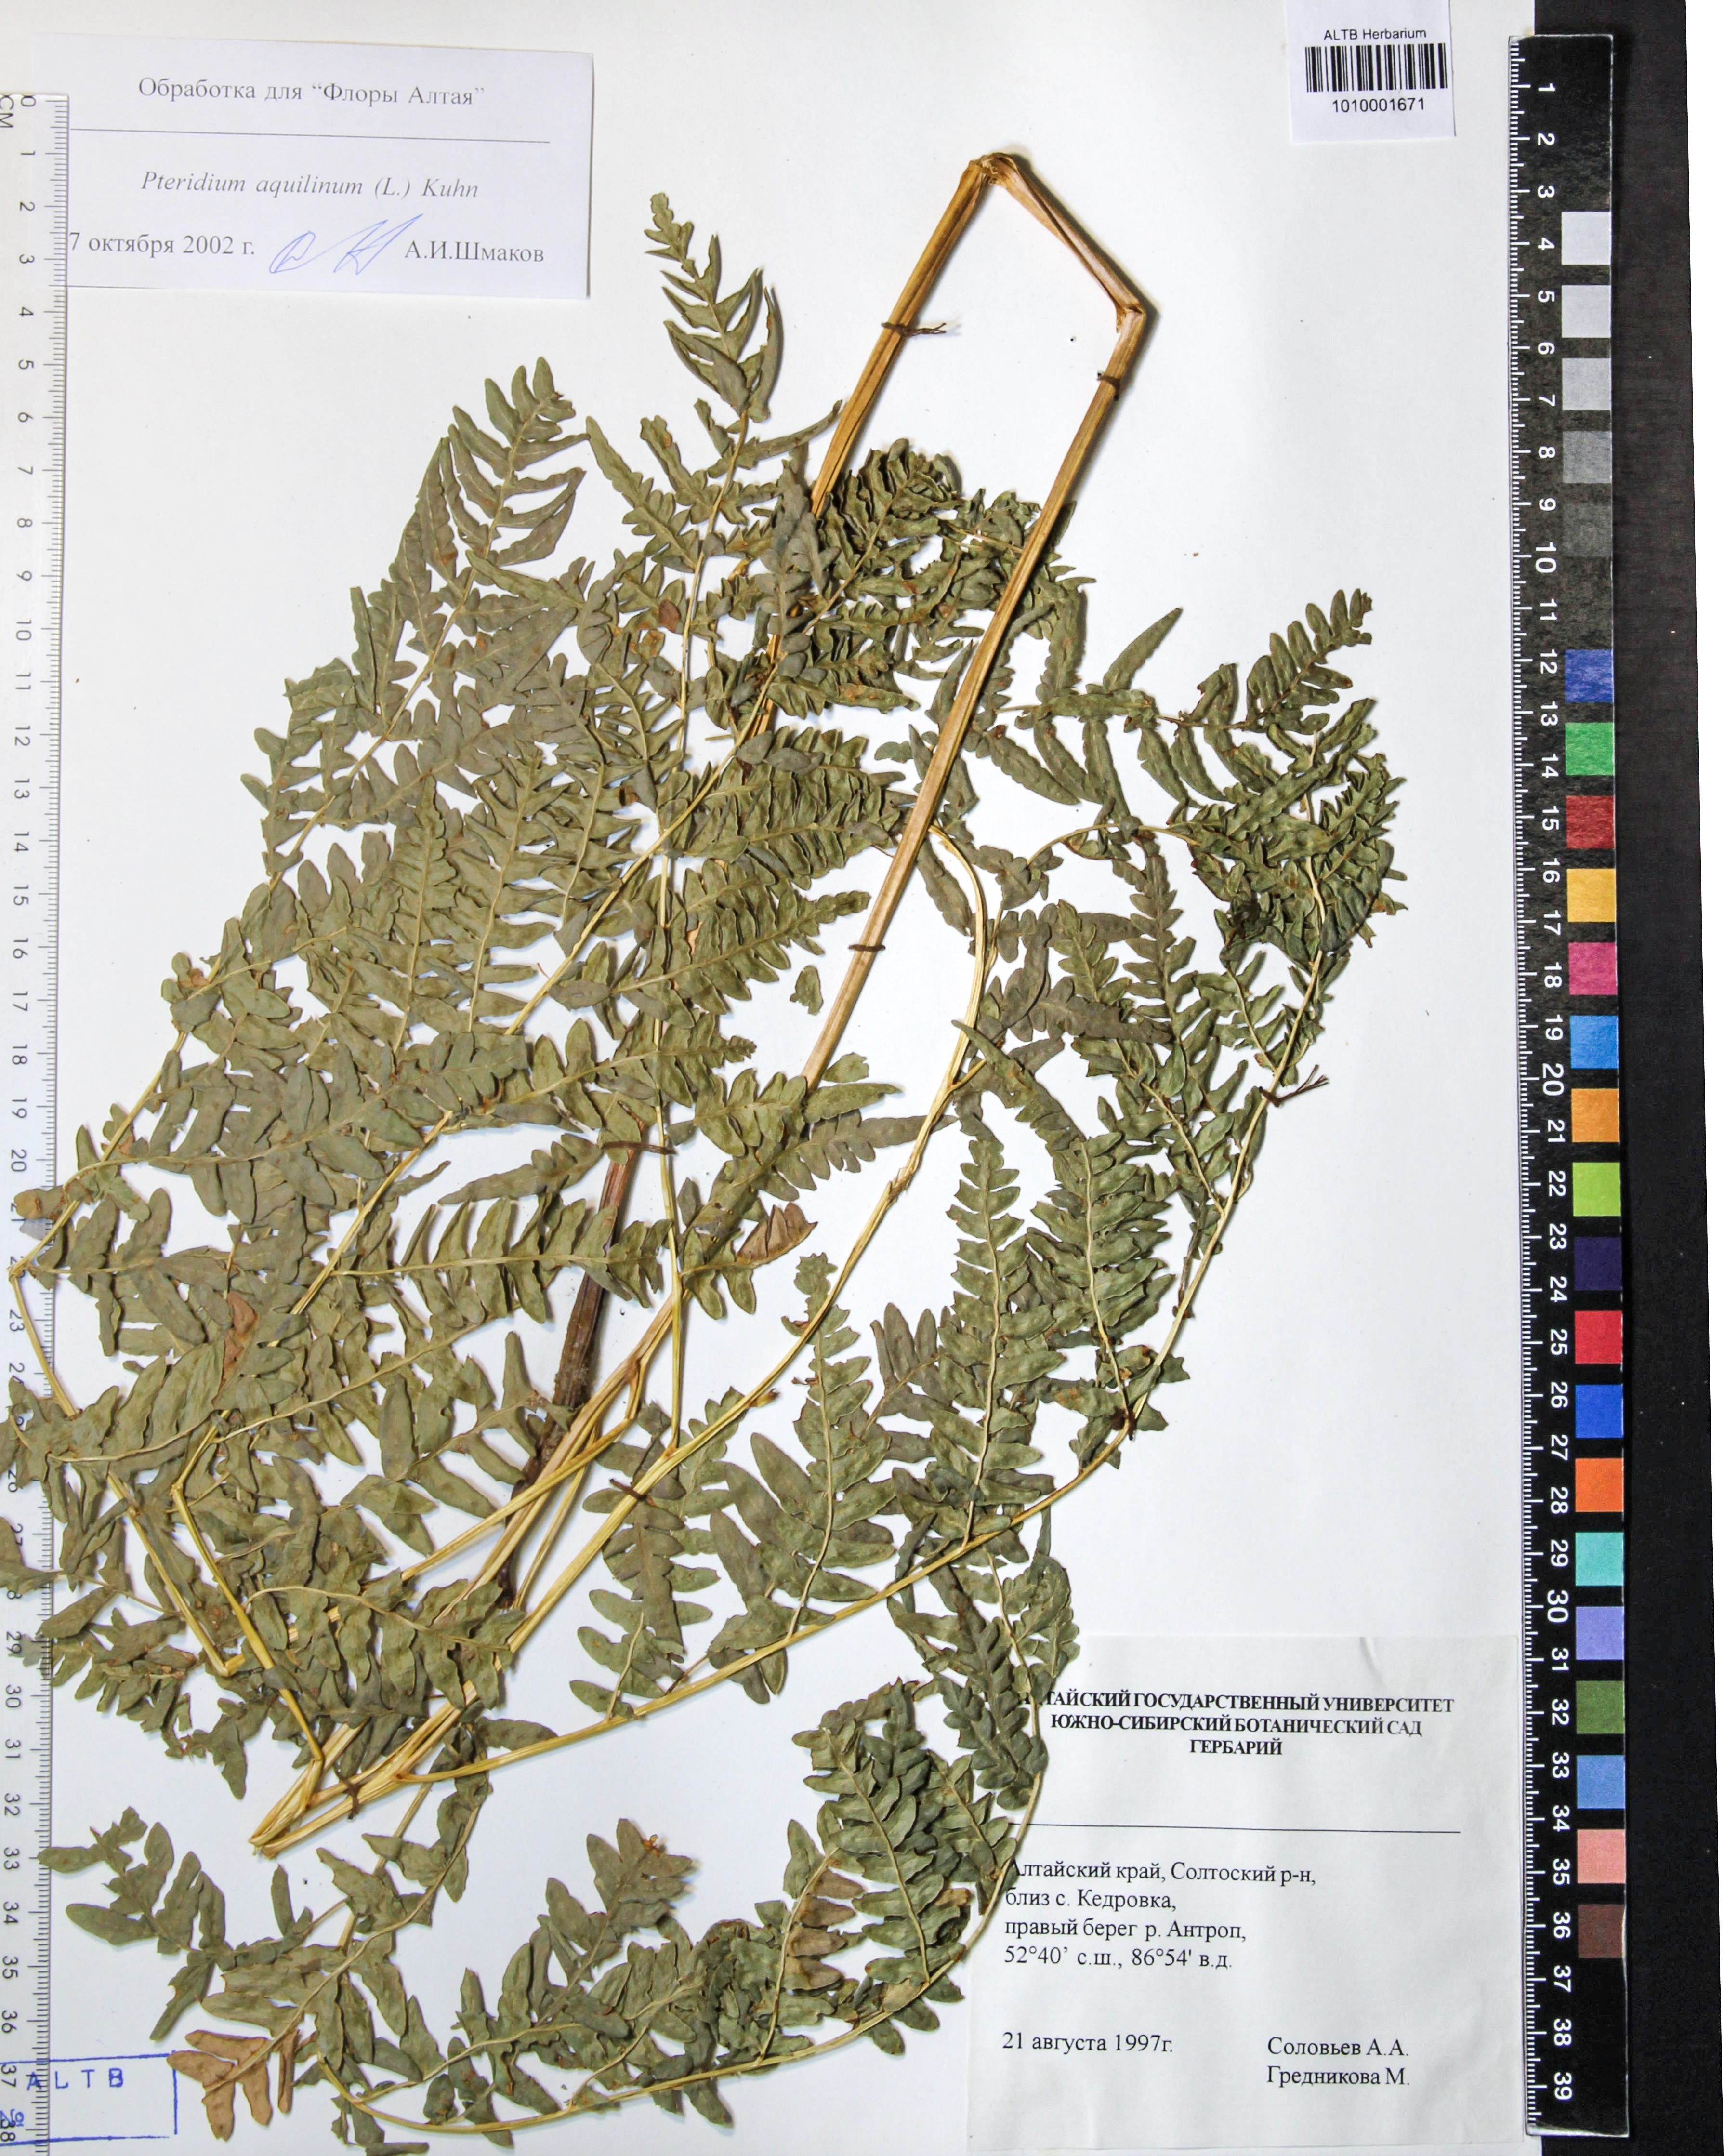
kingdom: Plantae
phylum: Tracheophyta
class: Polypodiopsida
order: Polypodiales
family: Dennstaedtiaceae
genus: Pteridium
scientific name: Pteridium aquilinum
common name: Bracken
